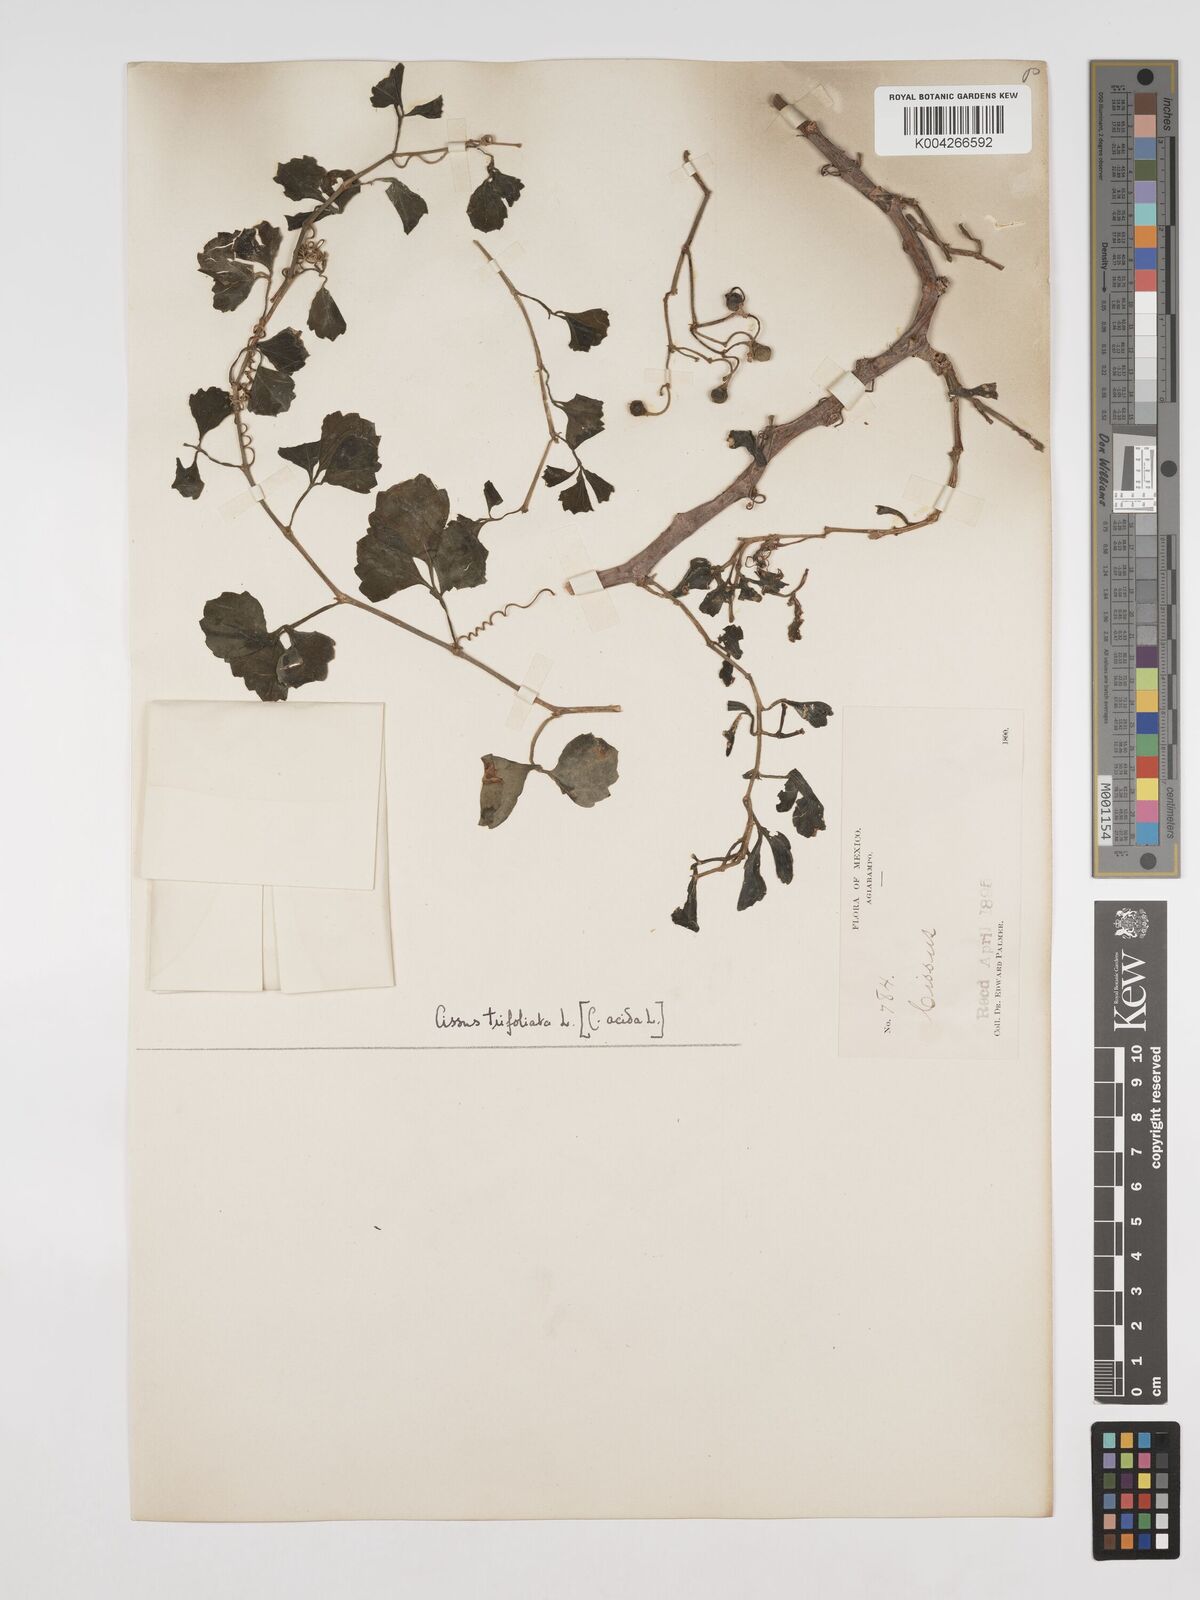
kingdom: Plantae
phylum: Tracheophyta
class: Magnoliopsida
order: Vitales
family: Vitaceae
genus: Cissus
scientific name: Cissus trifoliata
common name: Vine-sorrel
